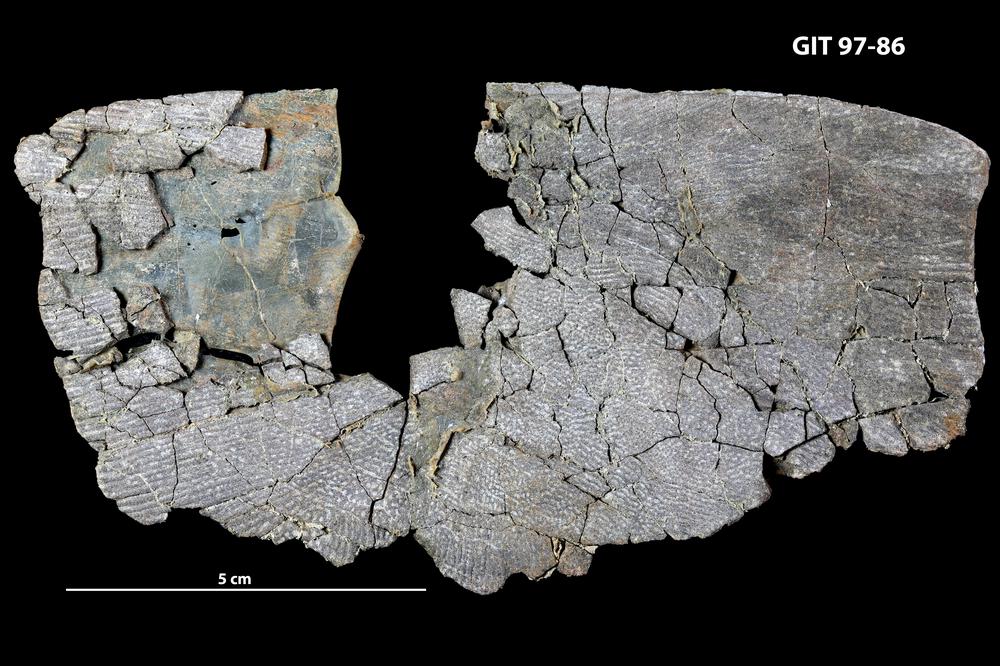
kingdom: Animalia
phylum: Chordata
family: Holonematidae
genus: Holonema
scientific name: Holonema
